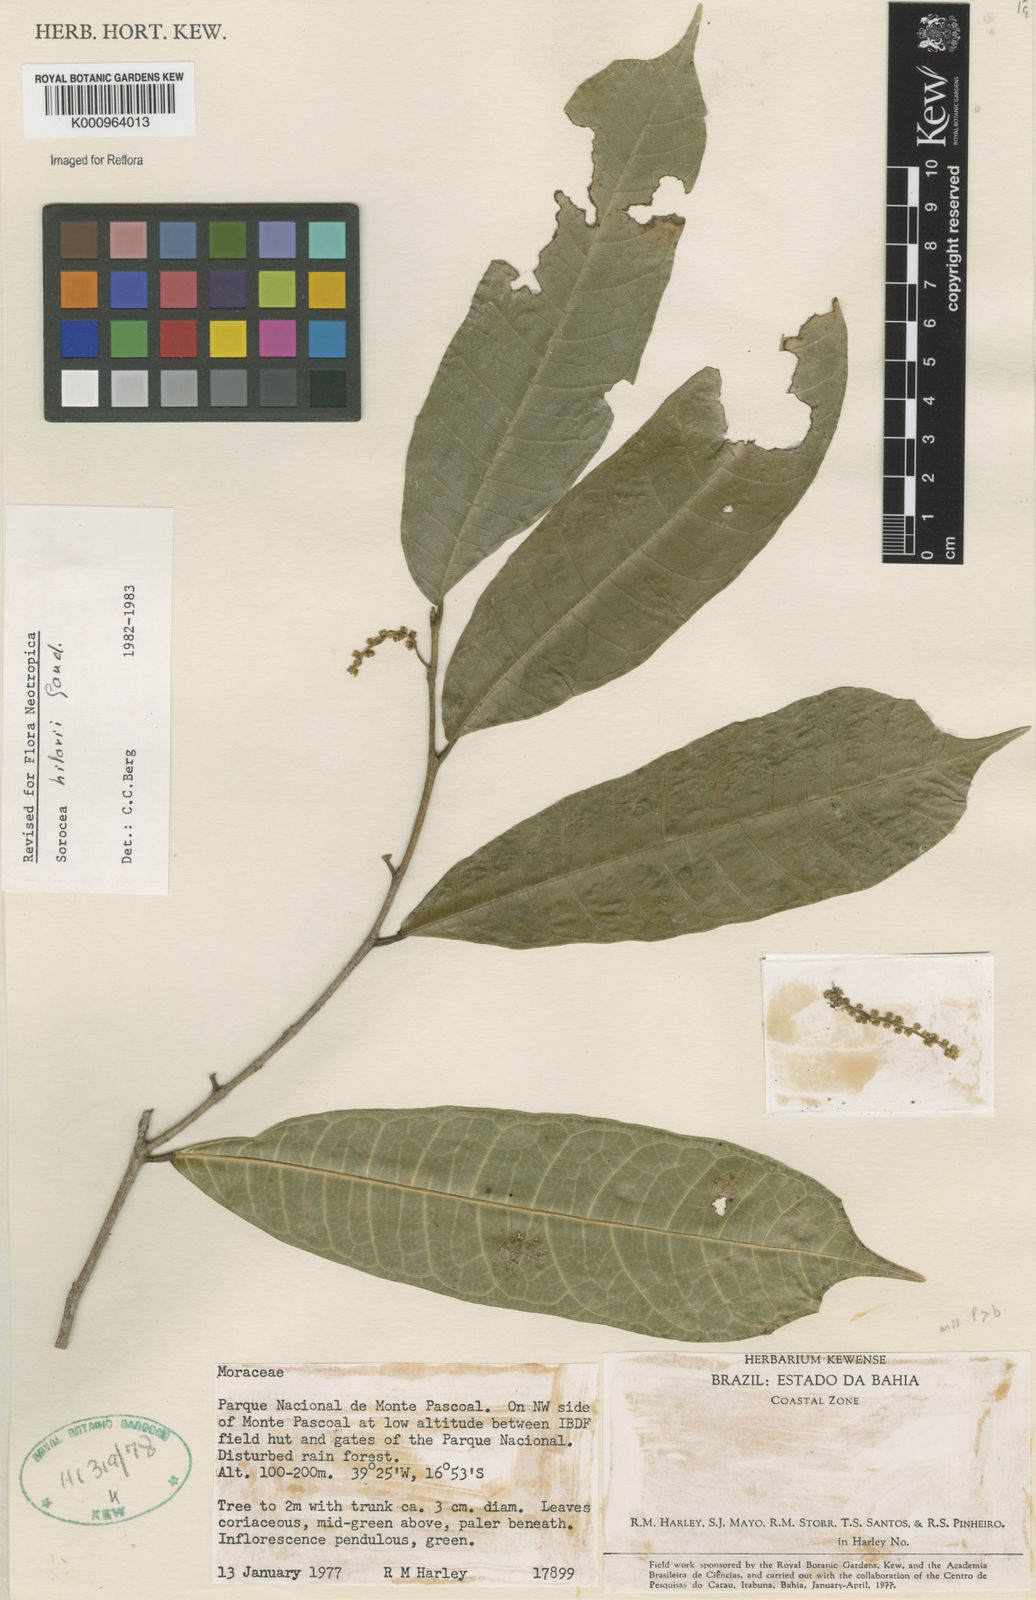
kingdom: Plantae
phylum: Tracheophyta
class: Magnoliopsida
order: Rosales
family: Moraceae
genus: Sorocea
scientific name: Sorocea hilarii
